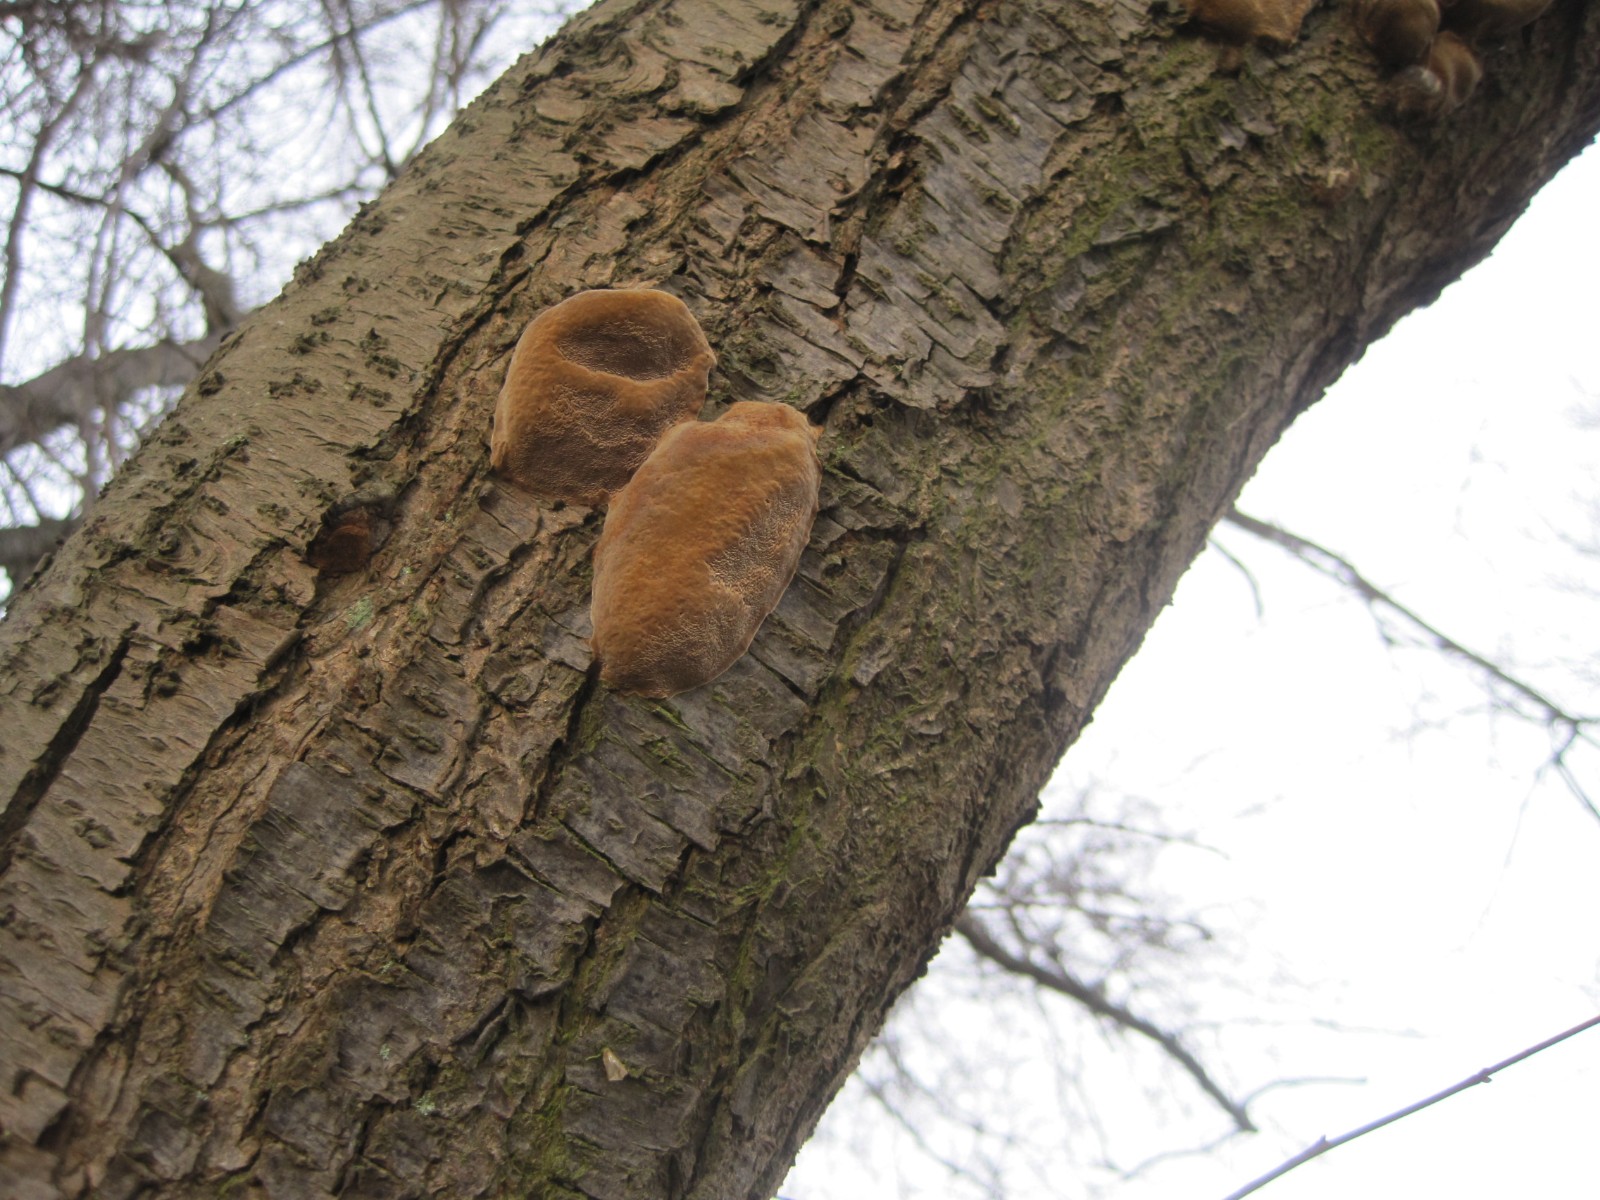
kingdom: Fungi
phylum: Basidiomycota
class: Agaricomycetes
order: Hymenochaetales
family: Hymenochaetaceae
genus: Phellinus
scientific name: Phellinus pomaceus
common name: blomme-ildporesvamp
